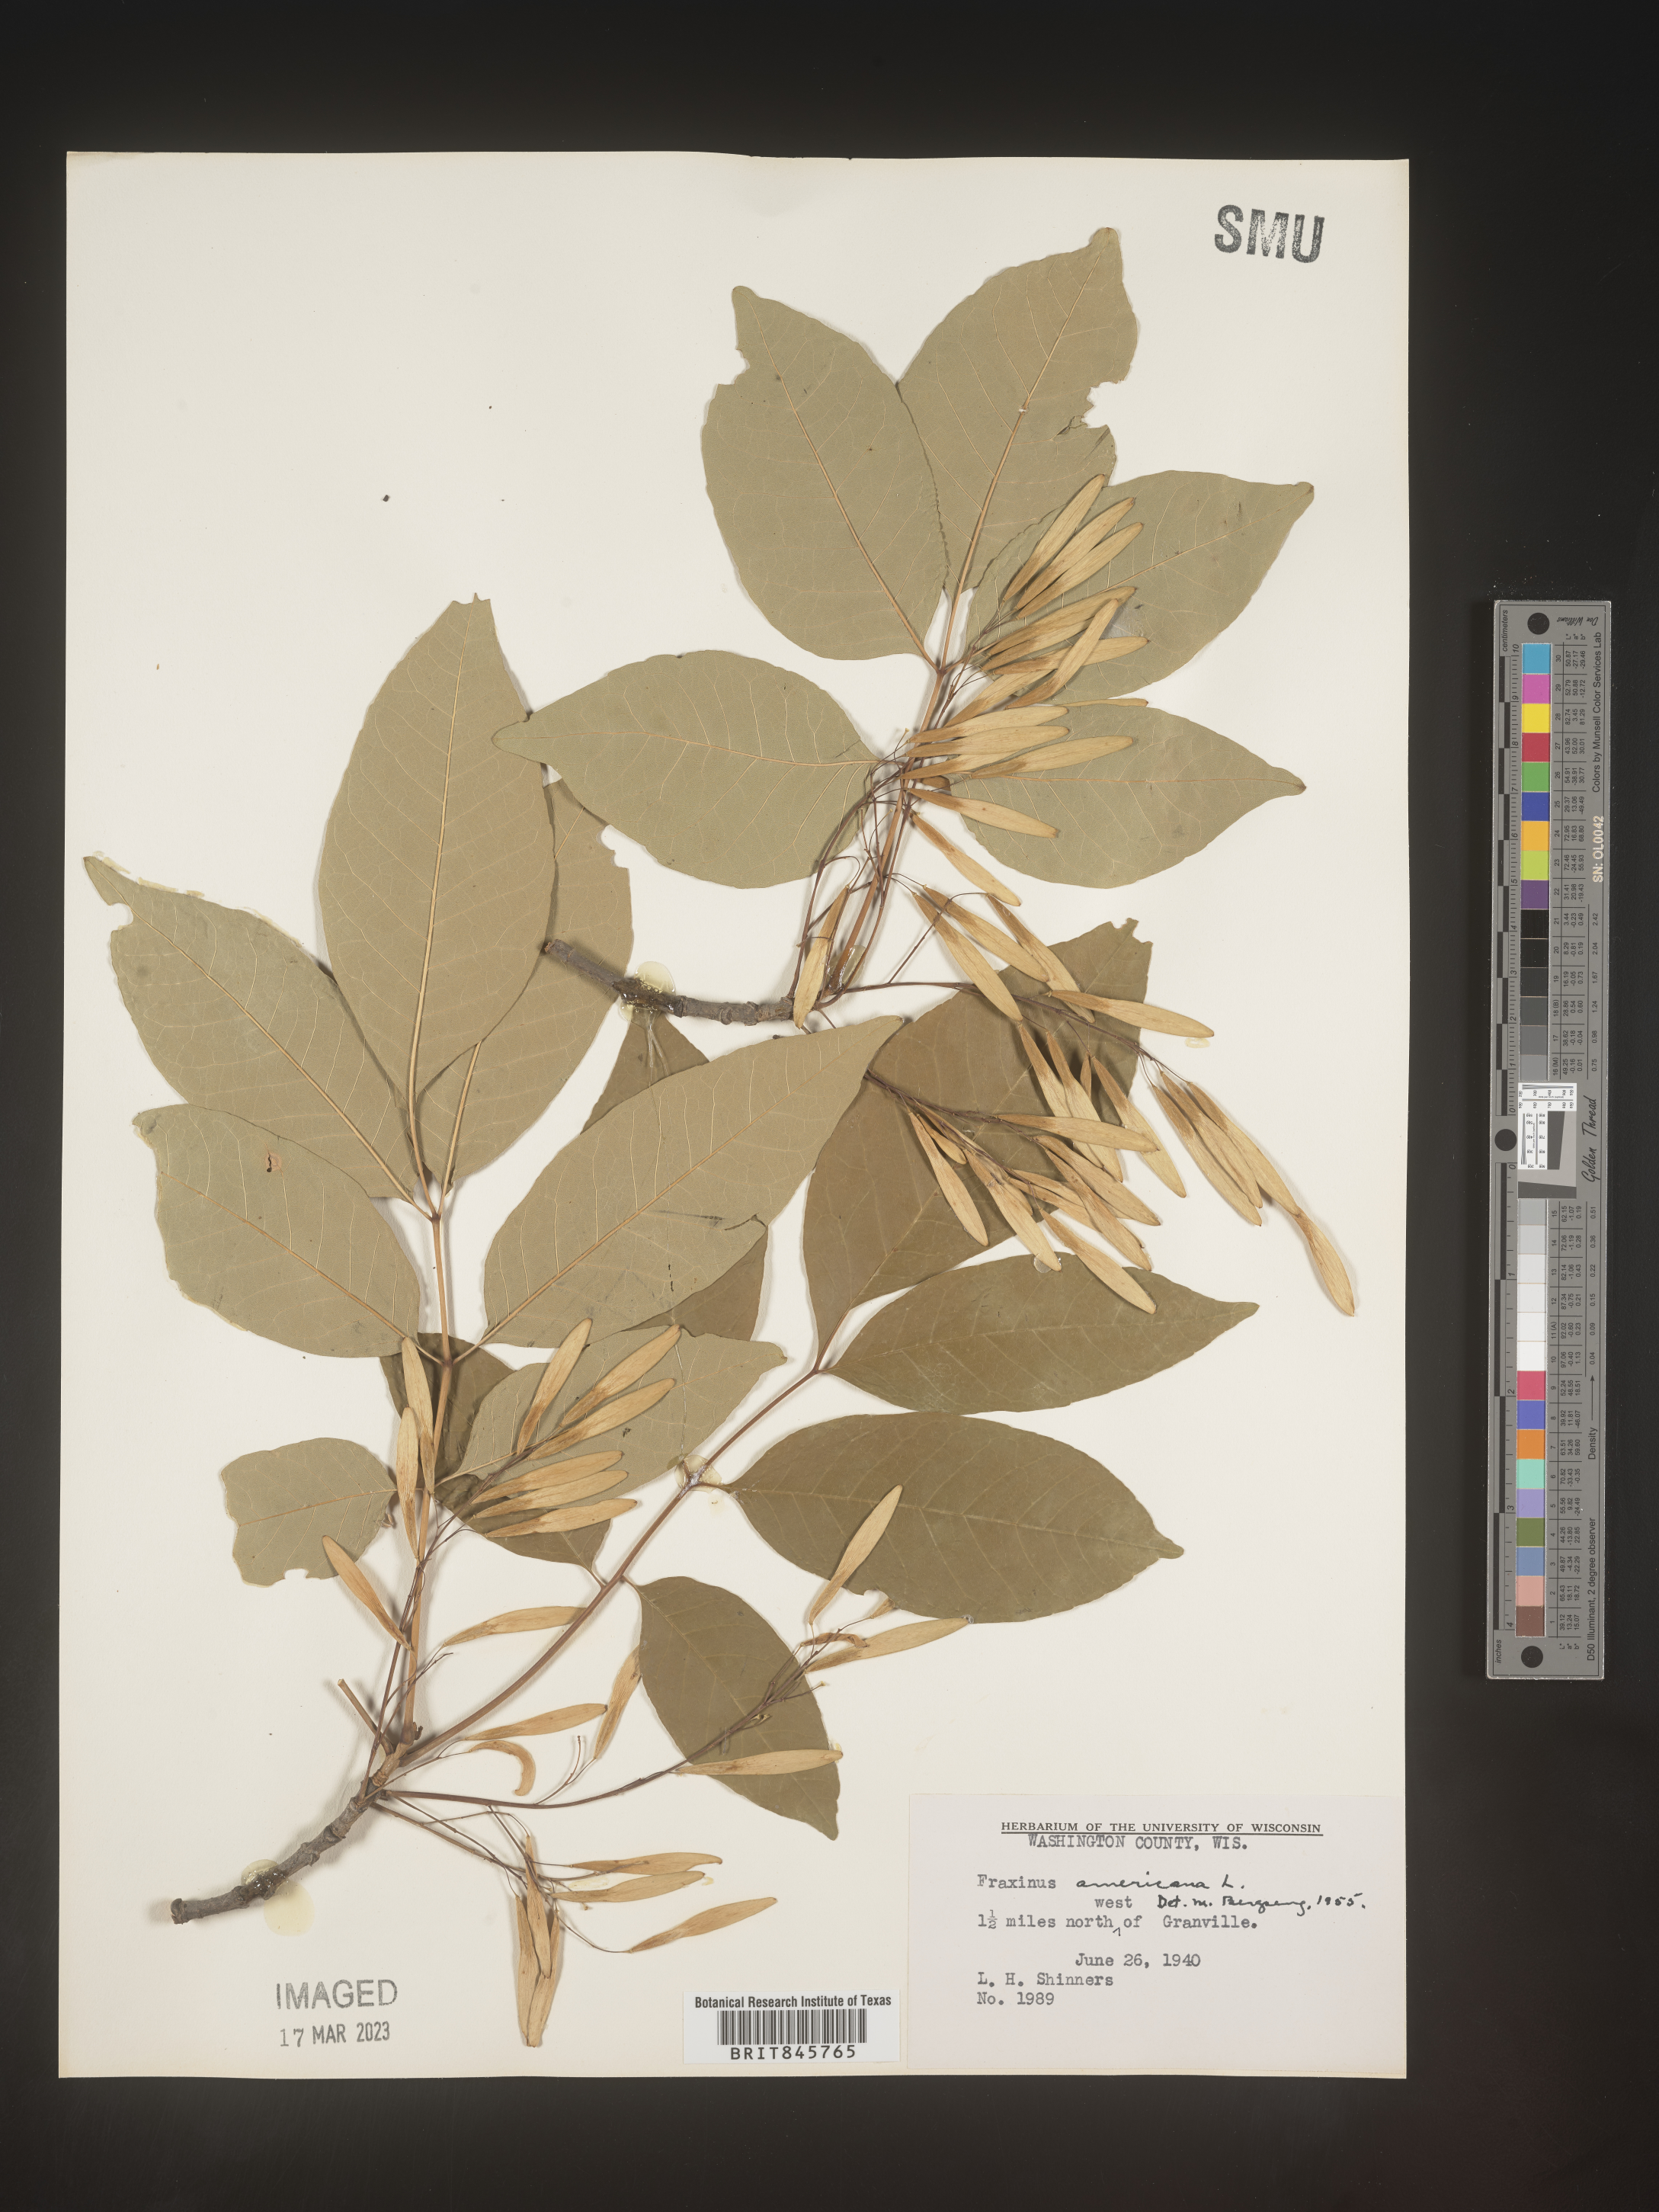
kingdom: Plantae
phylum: Tracheophyta
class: Magnoliopsida
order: Lamiales
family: Oleaceae
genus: Fraxinus
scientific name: Fraxinus americana
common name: White ash
